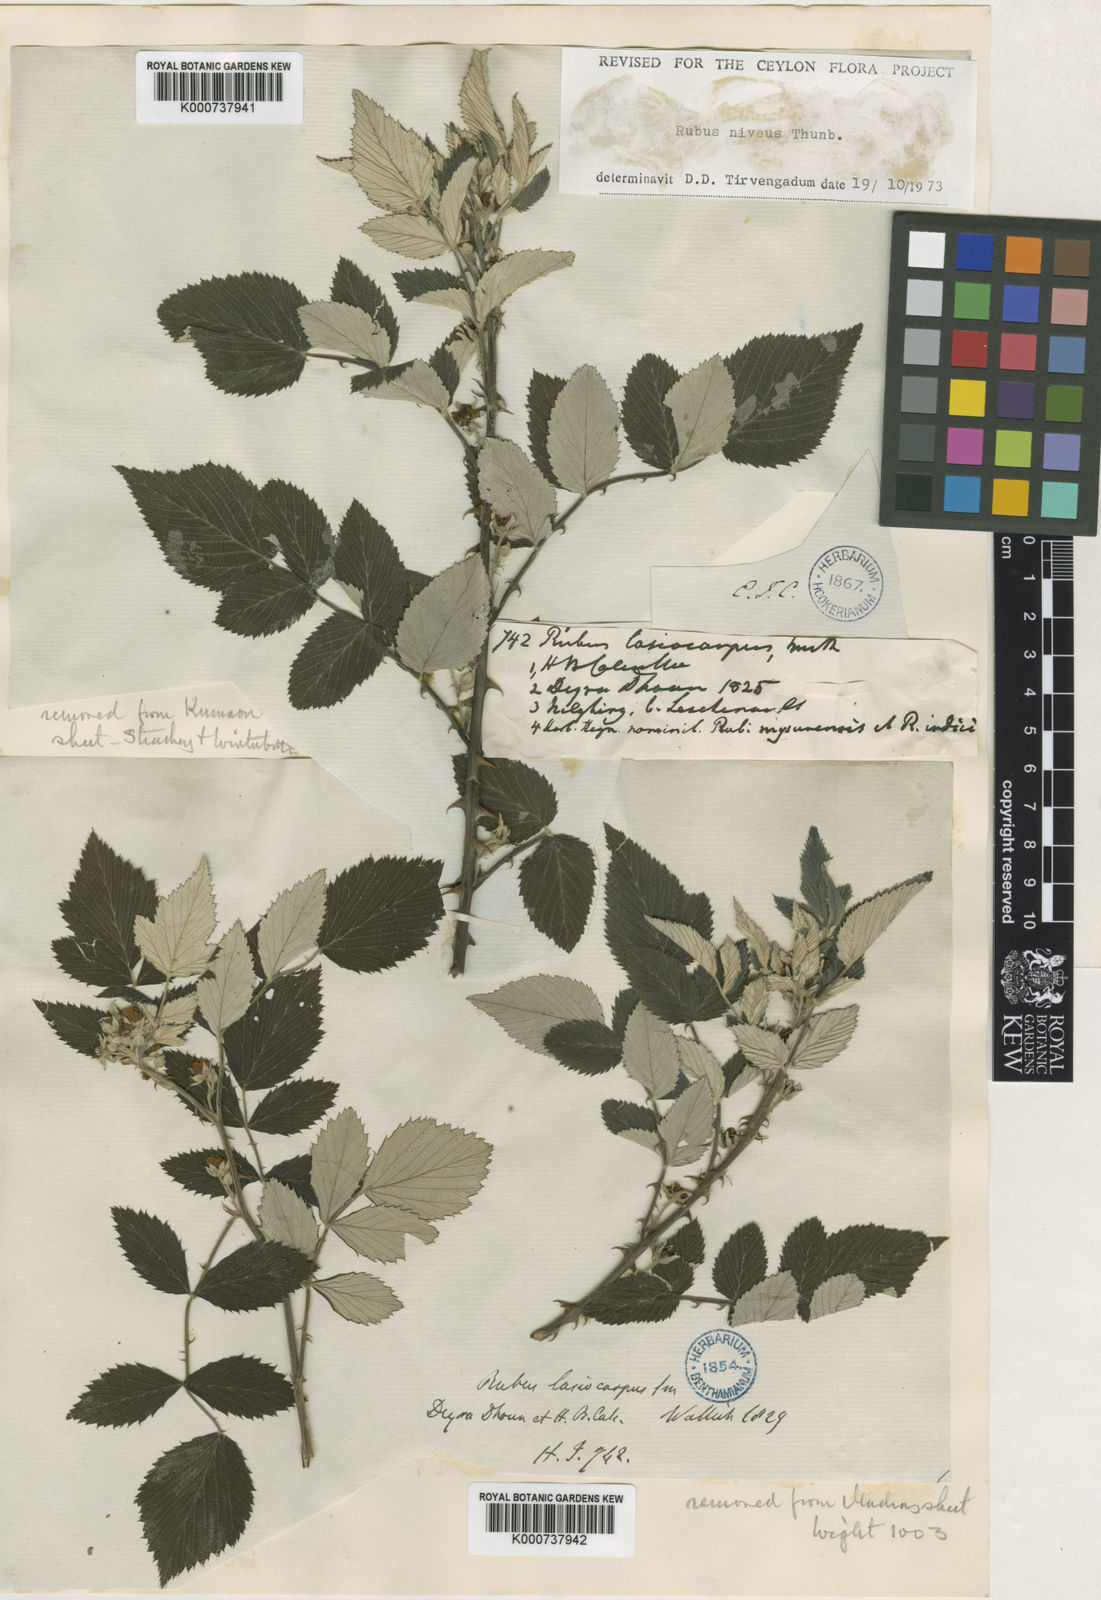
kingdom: Plantae
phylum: Tracheophyta
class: Magnoliopsida
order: Rosales
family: Rosaceae
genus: Rubus
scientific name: Rubus niveus
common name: Snowpeaks raspberry
